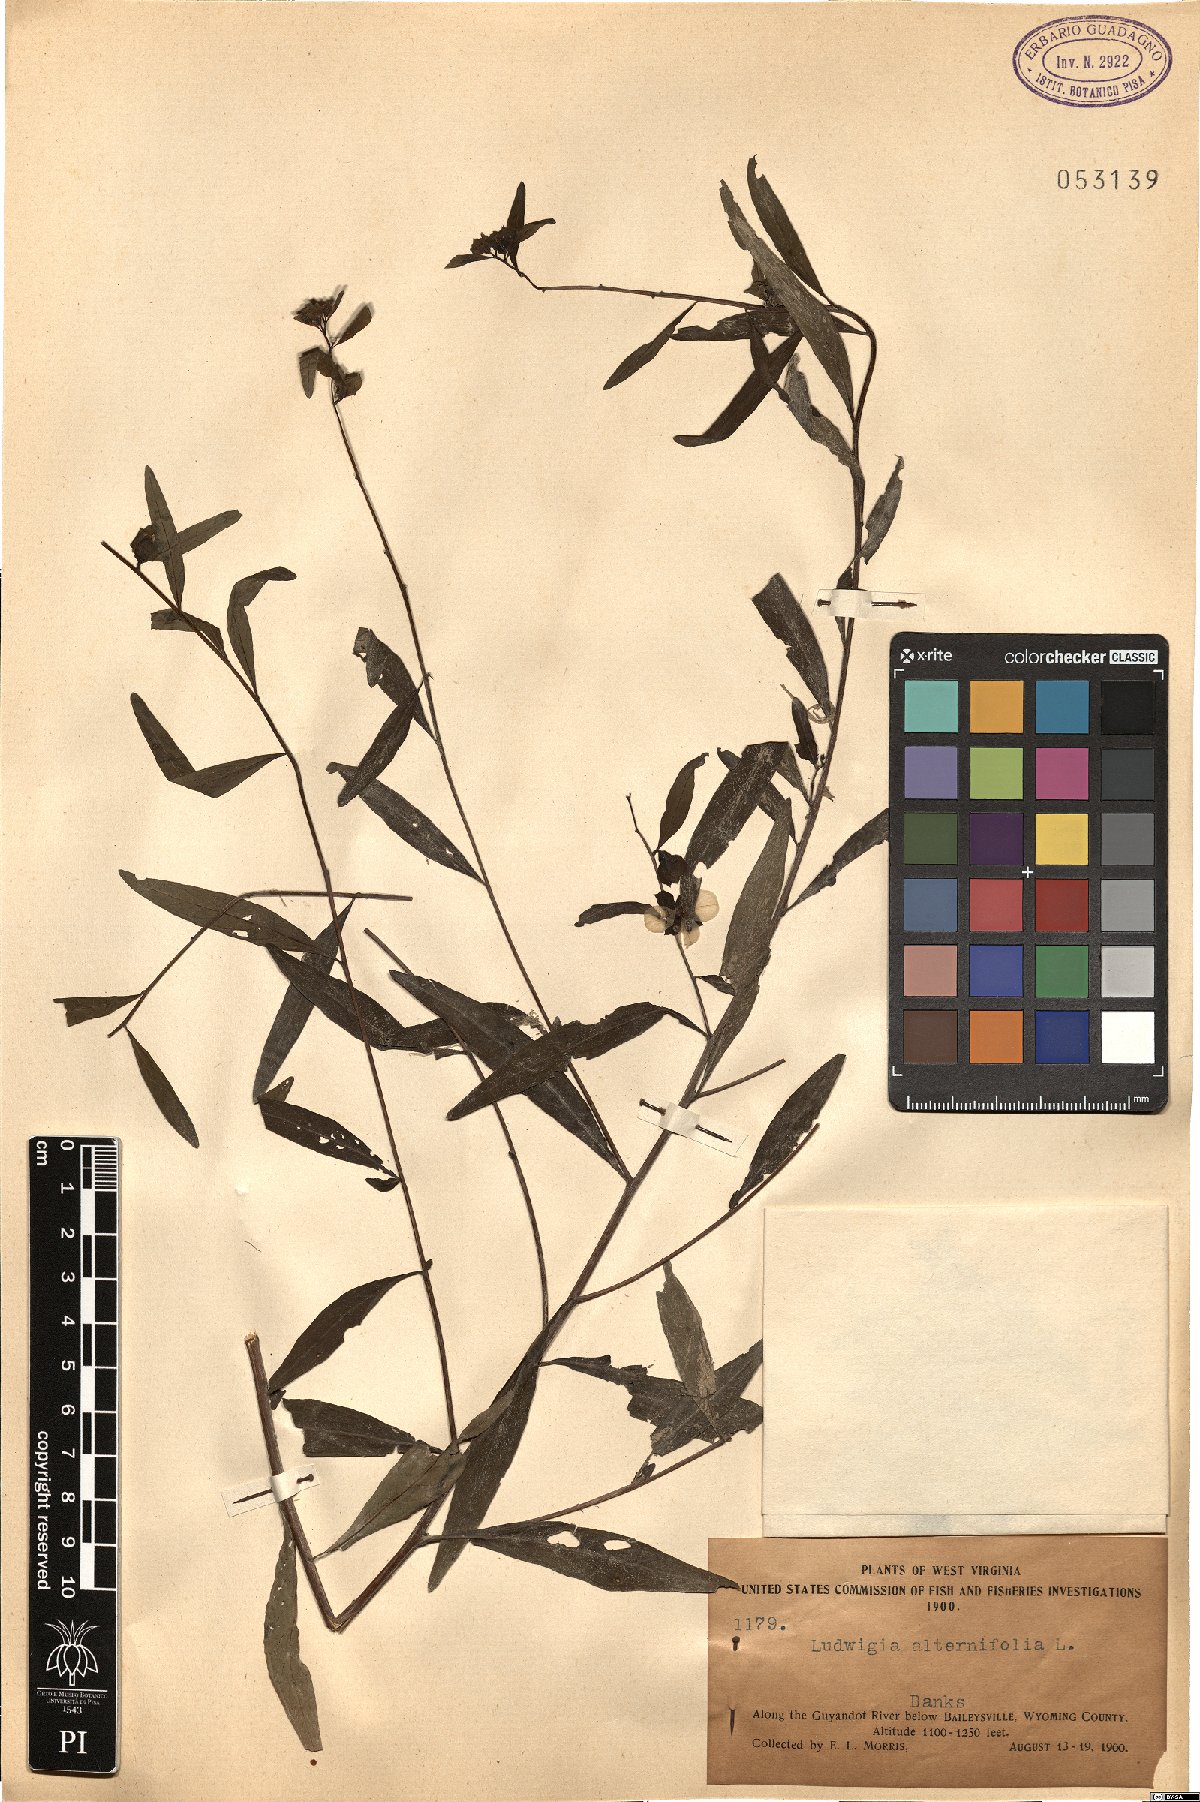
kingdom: Plantae
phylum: Tracheophyta
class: Magnoliopsida
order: Myrtales
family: Onagraceae
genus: Ludwigia
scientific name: Ludwigia alternifolia
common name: Rattlebox
